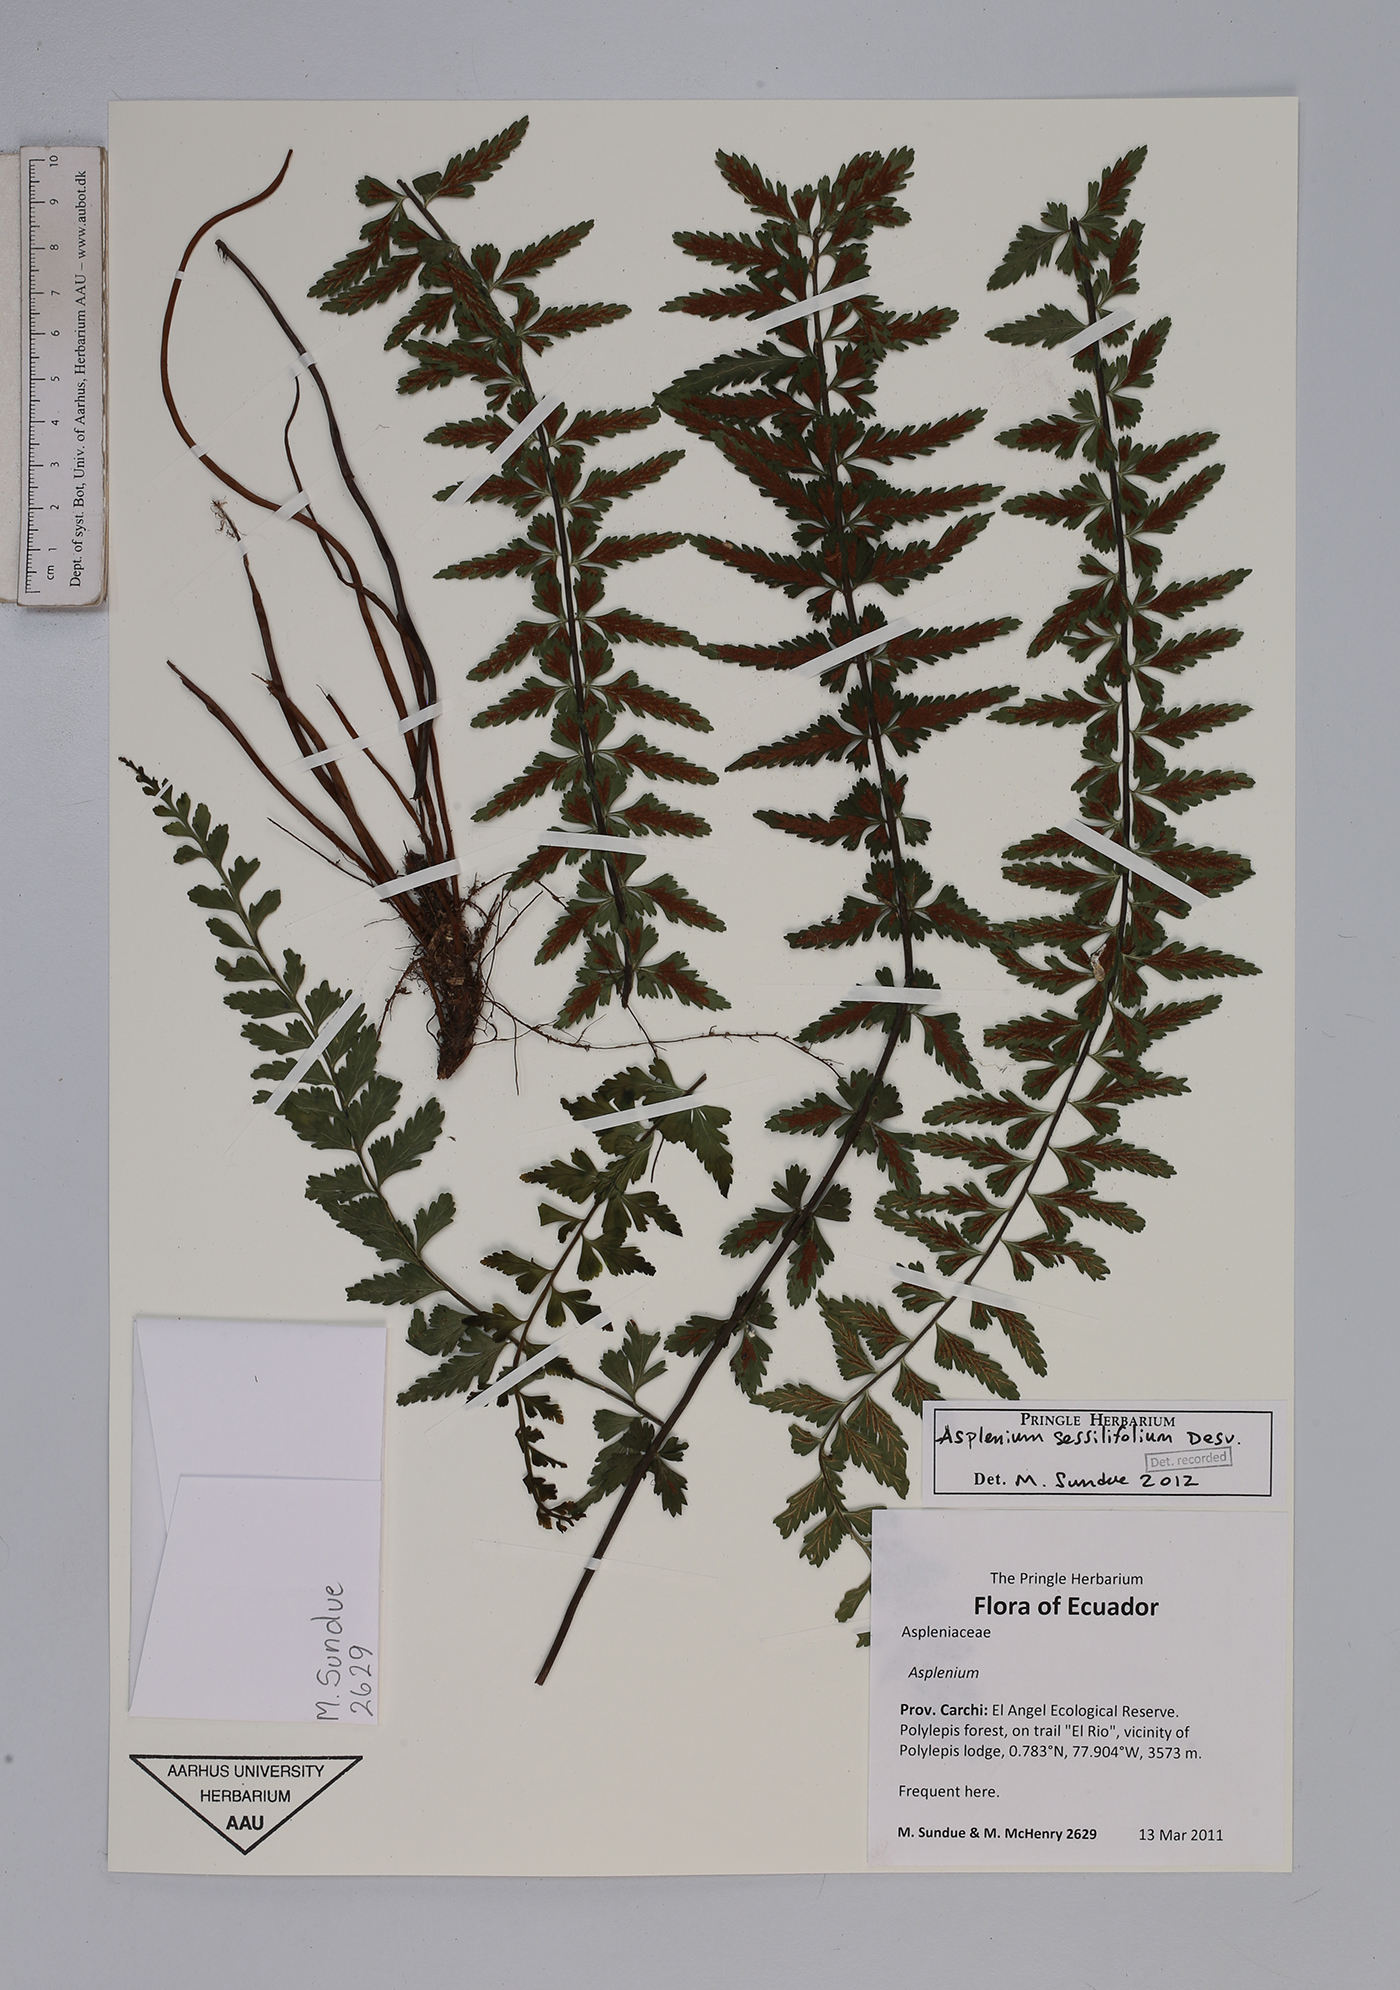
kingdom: Plantae
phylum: Tracheophyta
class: Polypodiopsida
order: Polypodiales
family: Aspleniaceae
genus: Asplenium
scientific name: Asplenium sessilifolium
